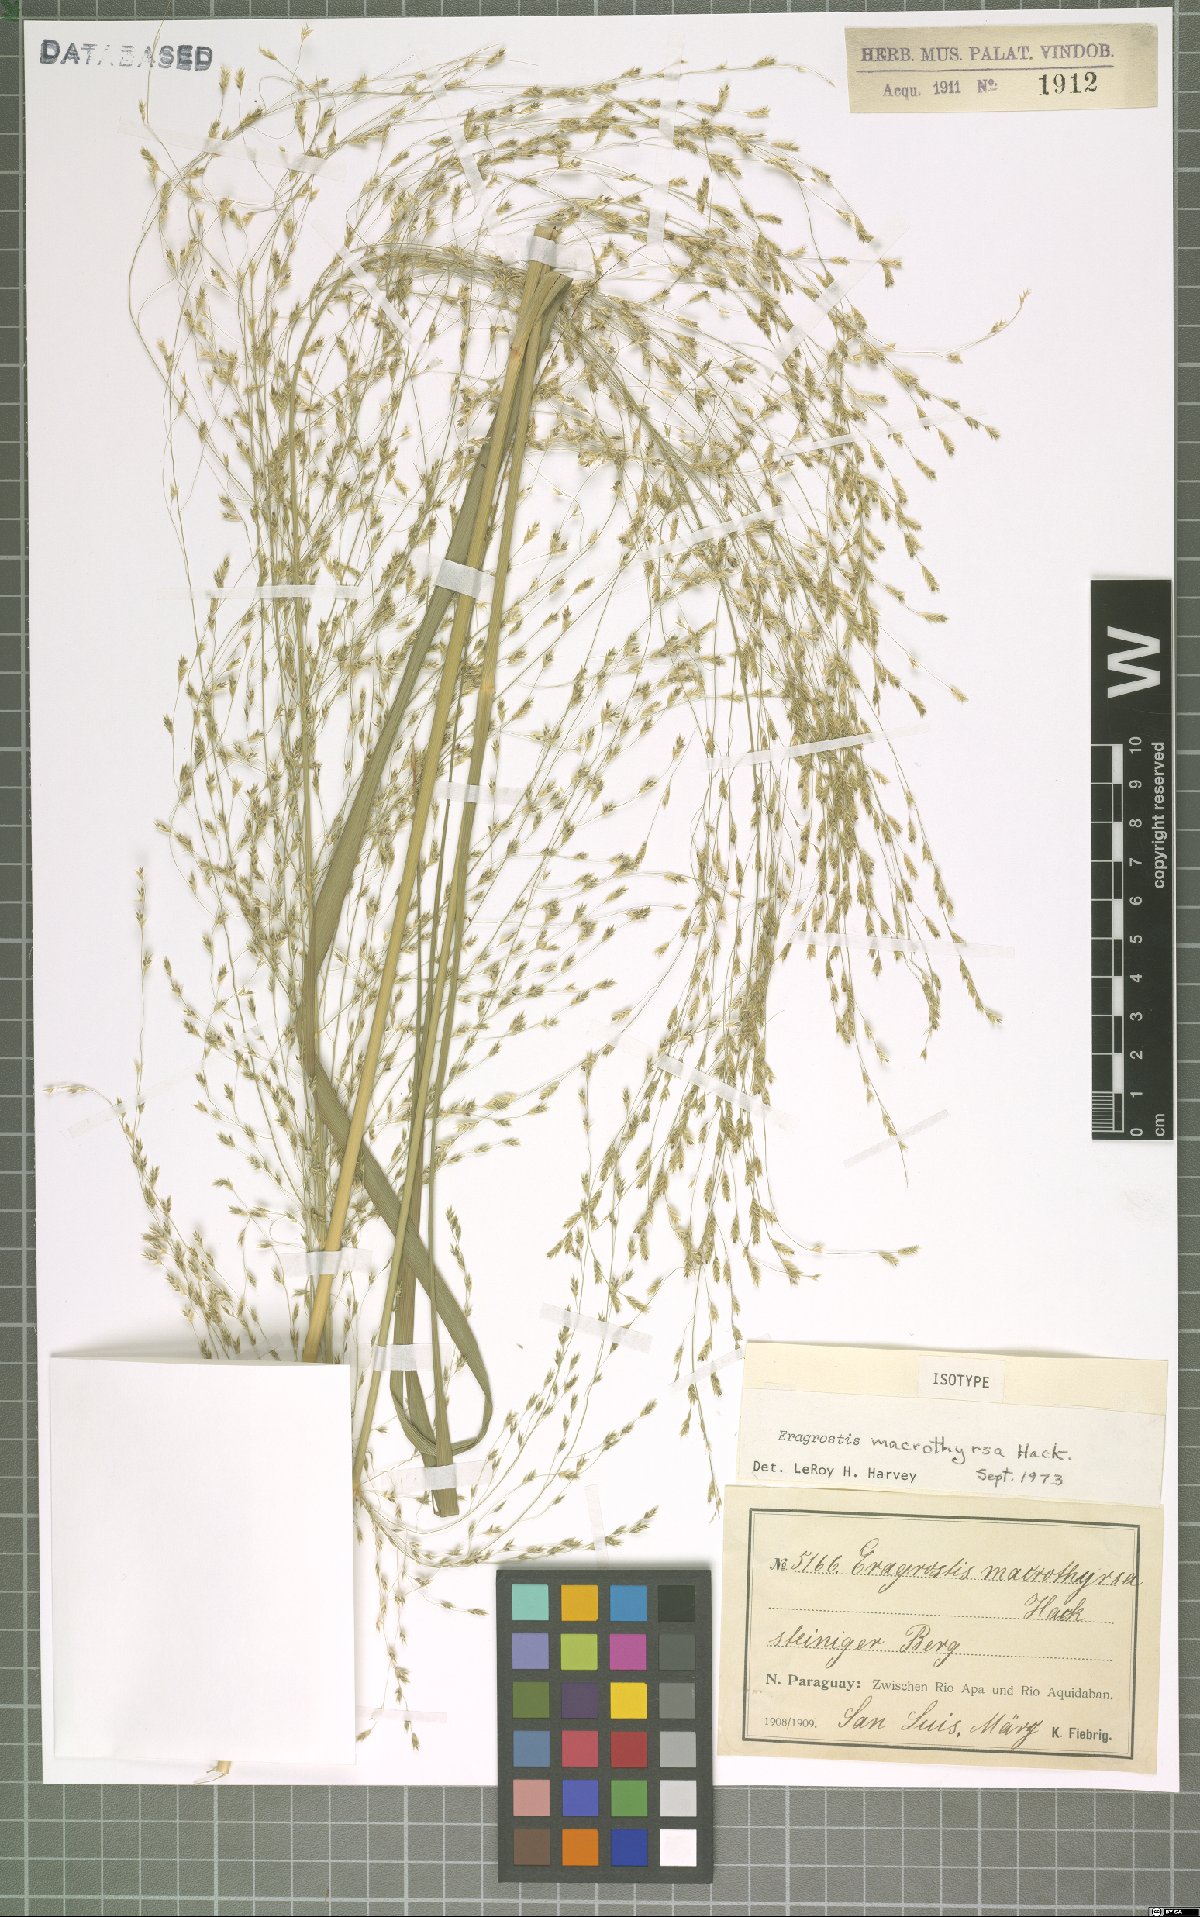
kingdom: Plantae
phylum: Tracheophyta
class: Liliopsida
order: Poales
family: Poaceae
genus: Eragrostis
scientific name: Eragrostis macrothyrsa
